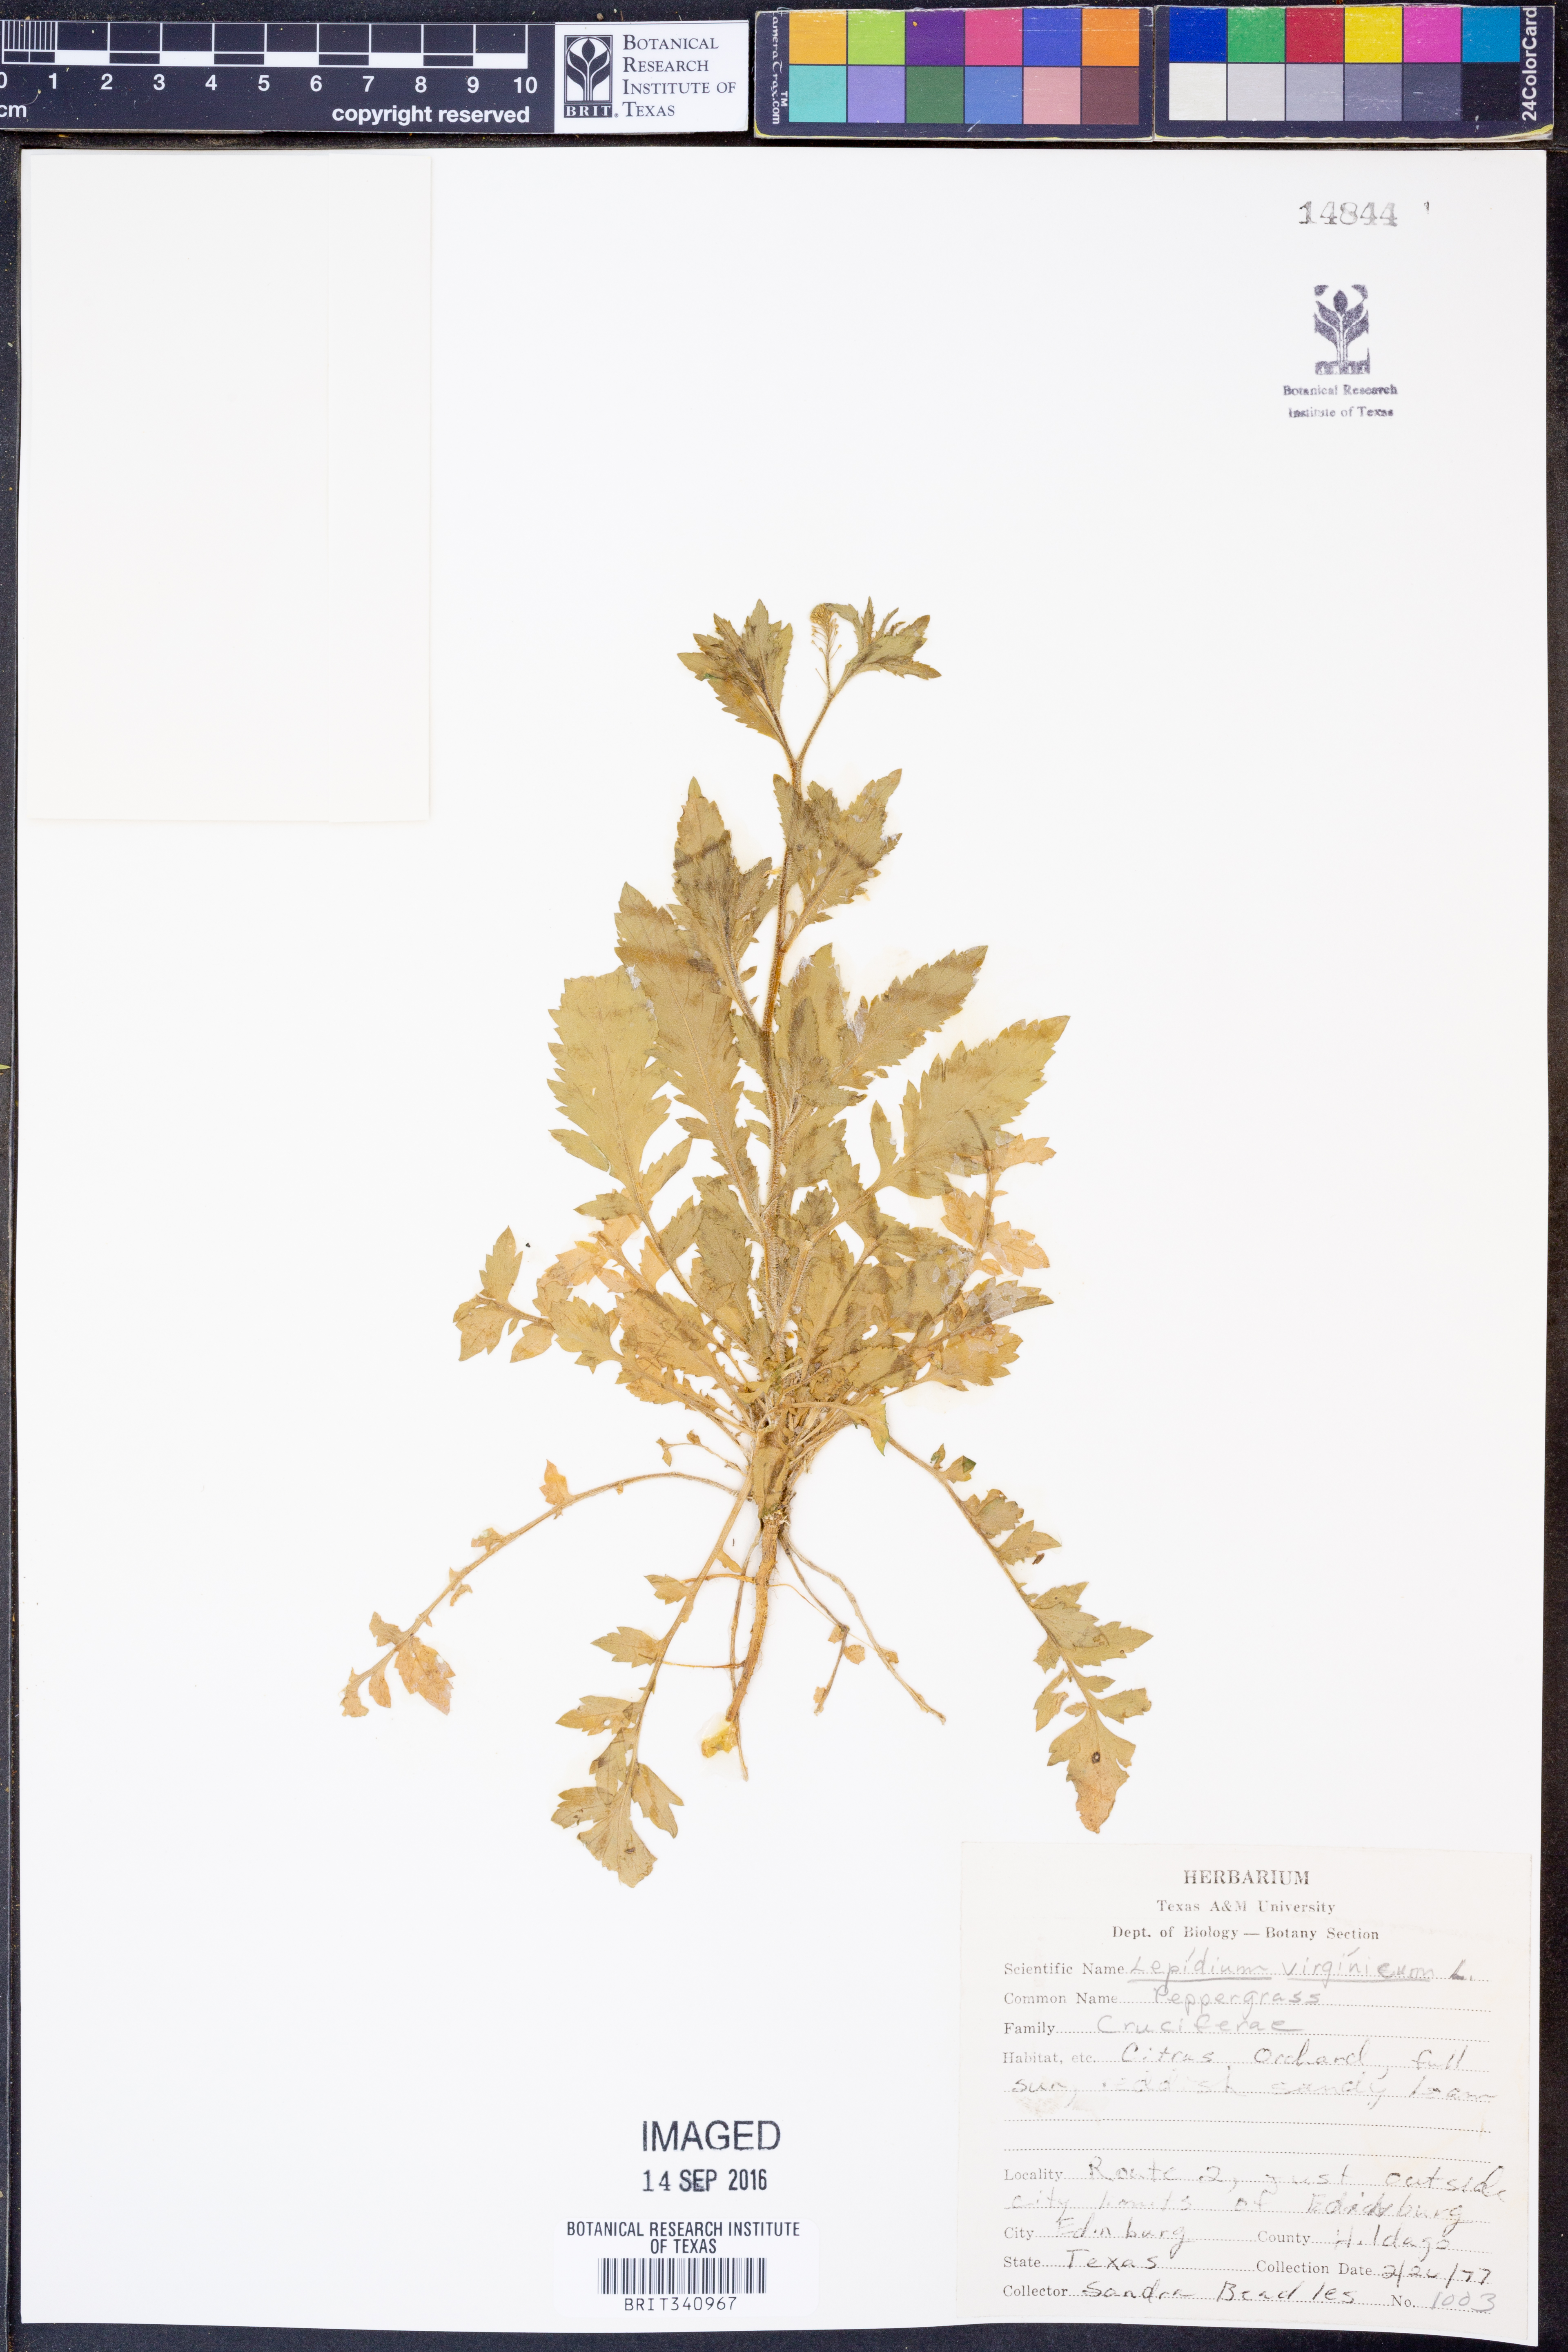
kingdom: Plantae
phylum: Tracheophyta
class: Magnoliopsida
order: Brassicales
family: Brassicaceae
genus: Lepidium
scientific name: Lepidium virginicum
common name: Least pepperwort
